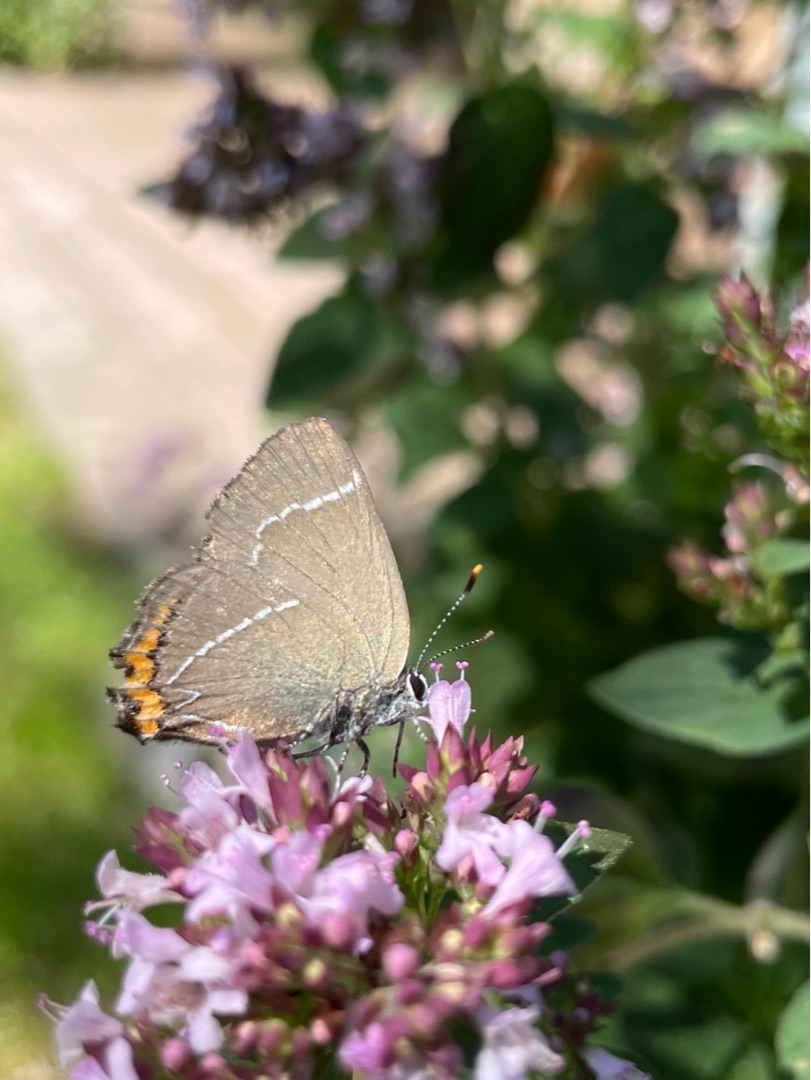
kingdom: Animalia
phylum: Arthropoda
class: Insecta
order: Lepidoptera
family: Lycaenidae
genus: Satyrium
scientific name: Satyrium w-album
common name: Det hvide W
